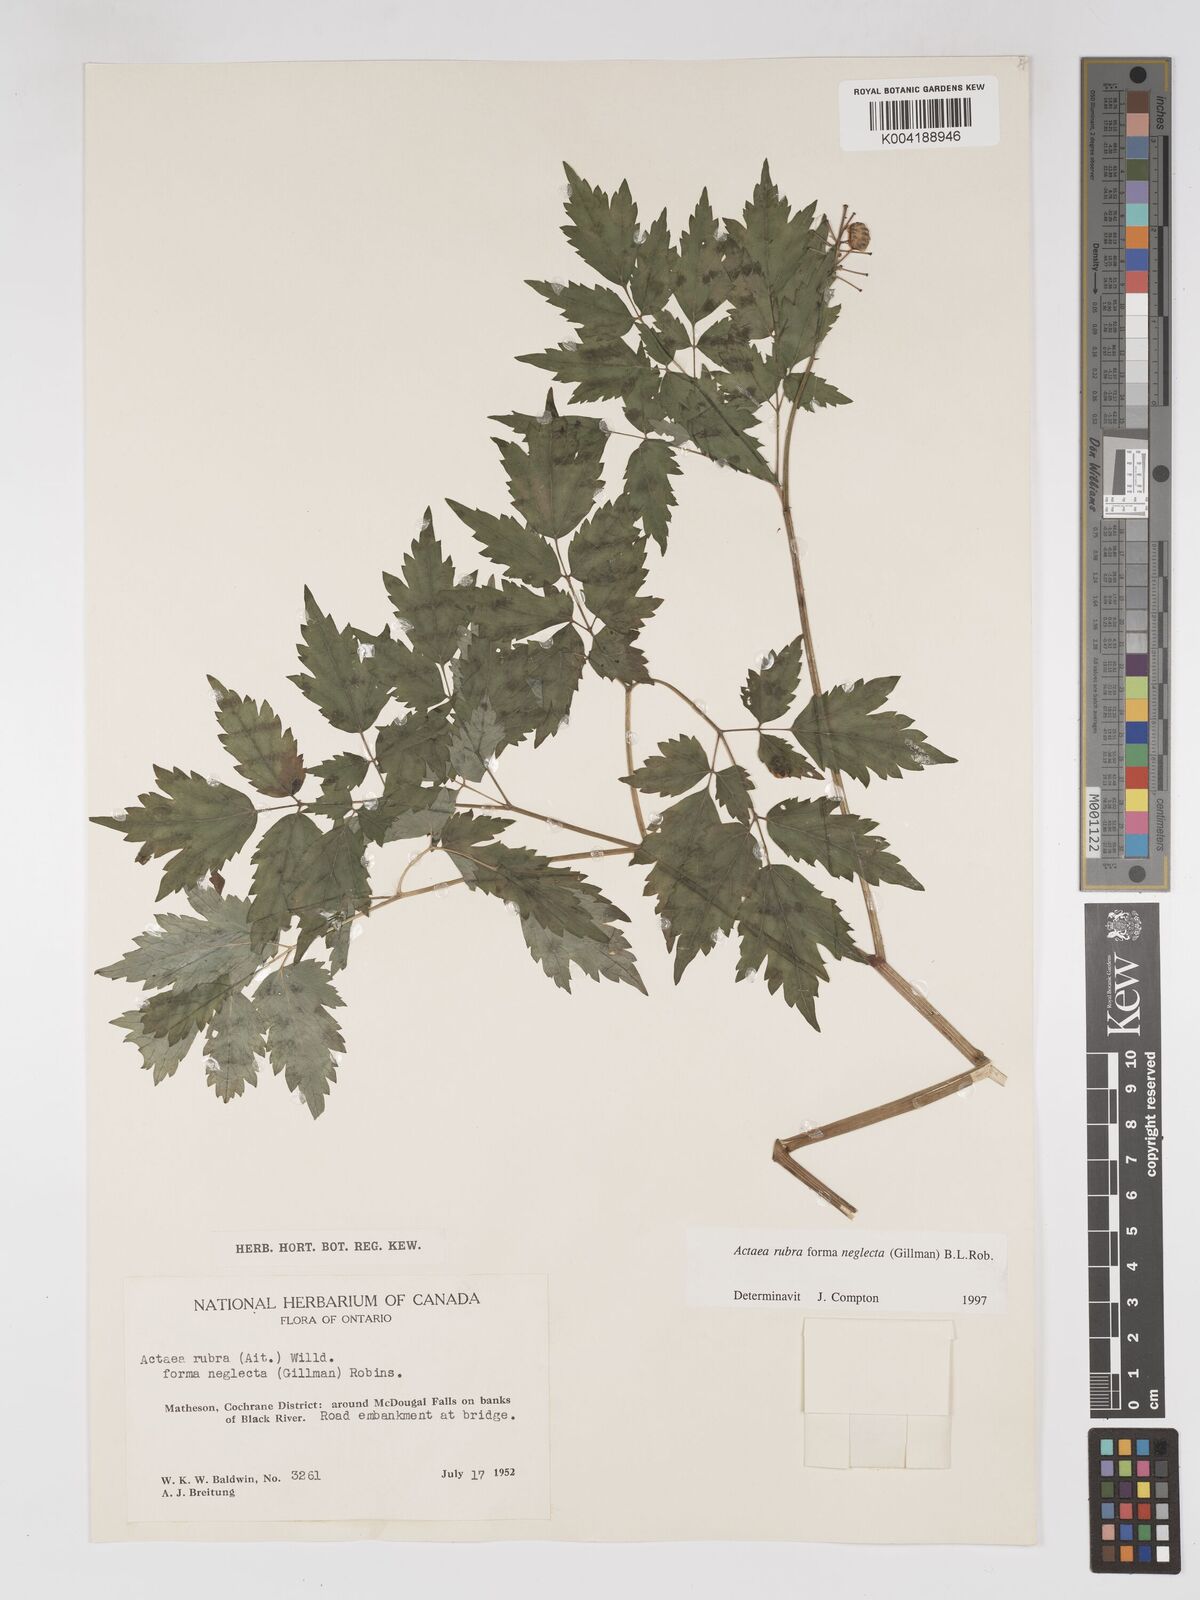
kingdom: Plantae
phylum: Tracheophyta
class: Magnoliopsida
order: Ranunculales
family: Ranunculaceae
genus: Actaea
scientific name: Actaea rubra
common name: Red baneberry
